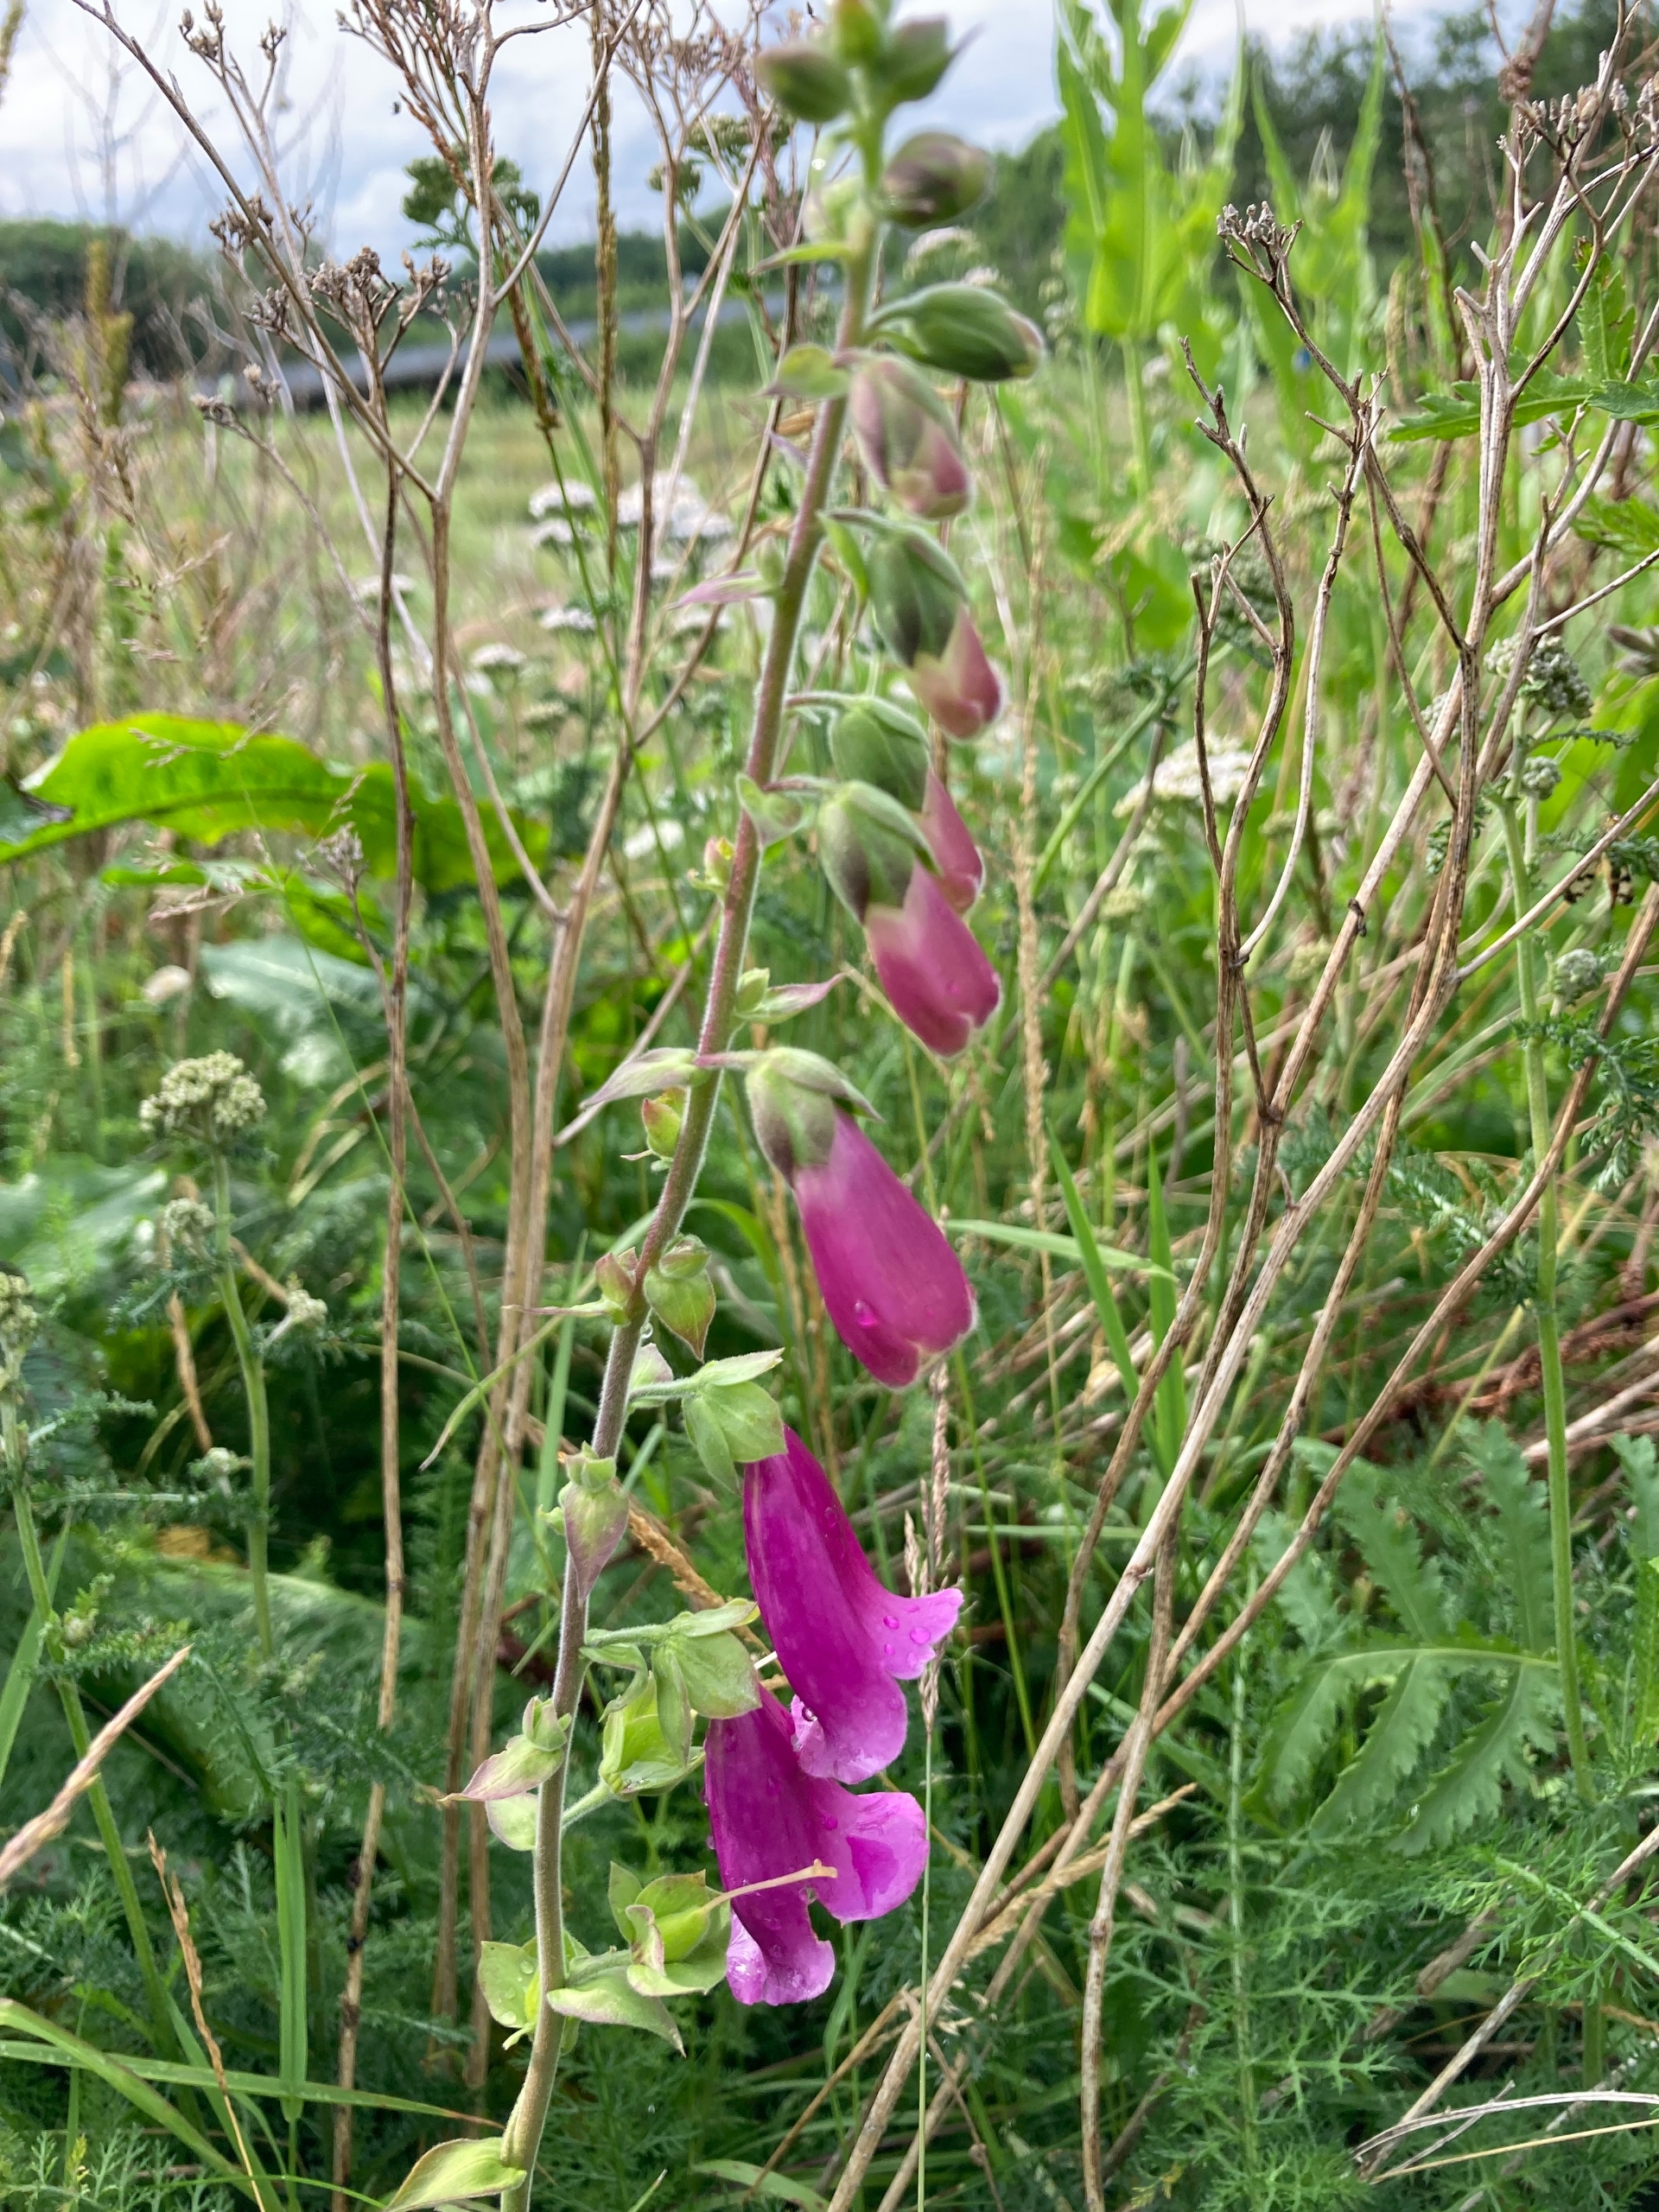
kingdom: Plantae
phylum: Tracheophyta
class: Magnoliopsida
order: Lamiales
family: Plantaginaceae
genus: Digitalis
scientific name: Digitalis purpurea
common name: Almindelig fingerbøl
